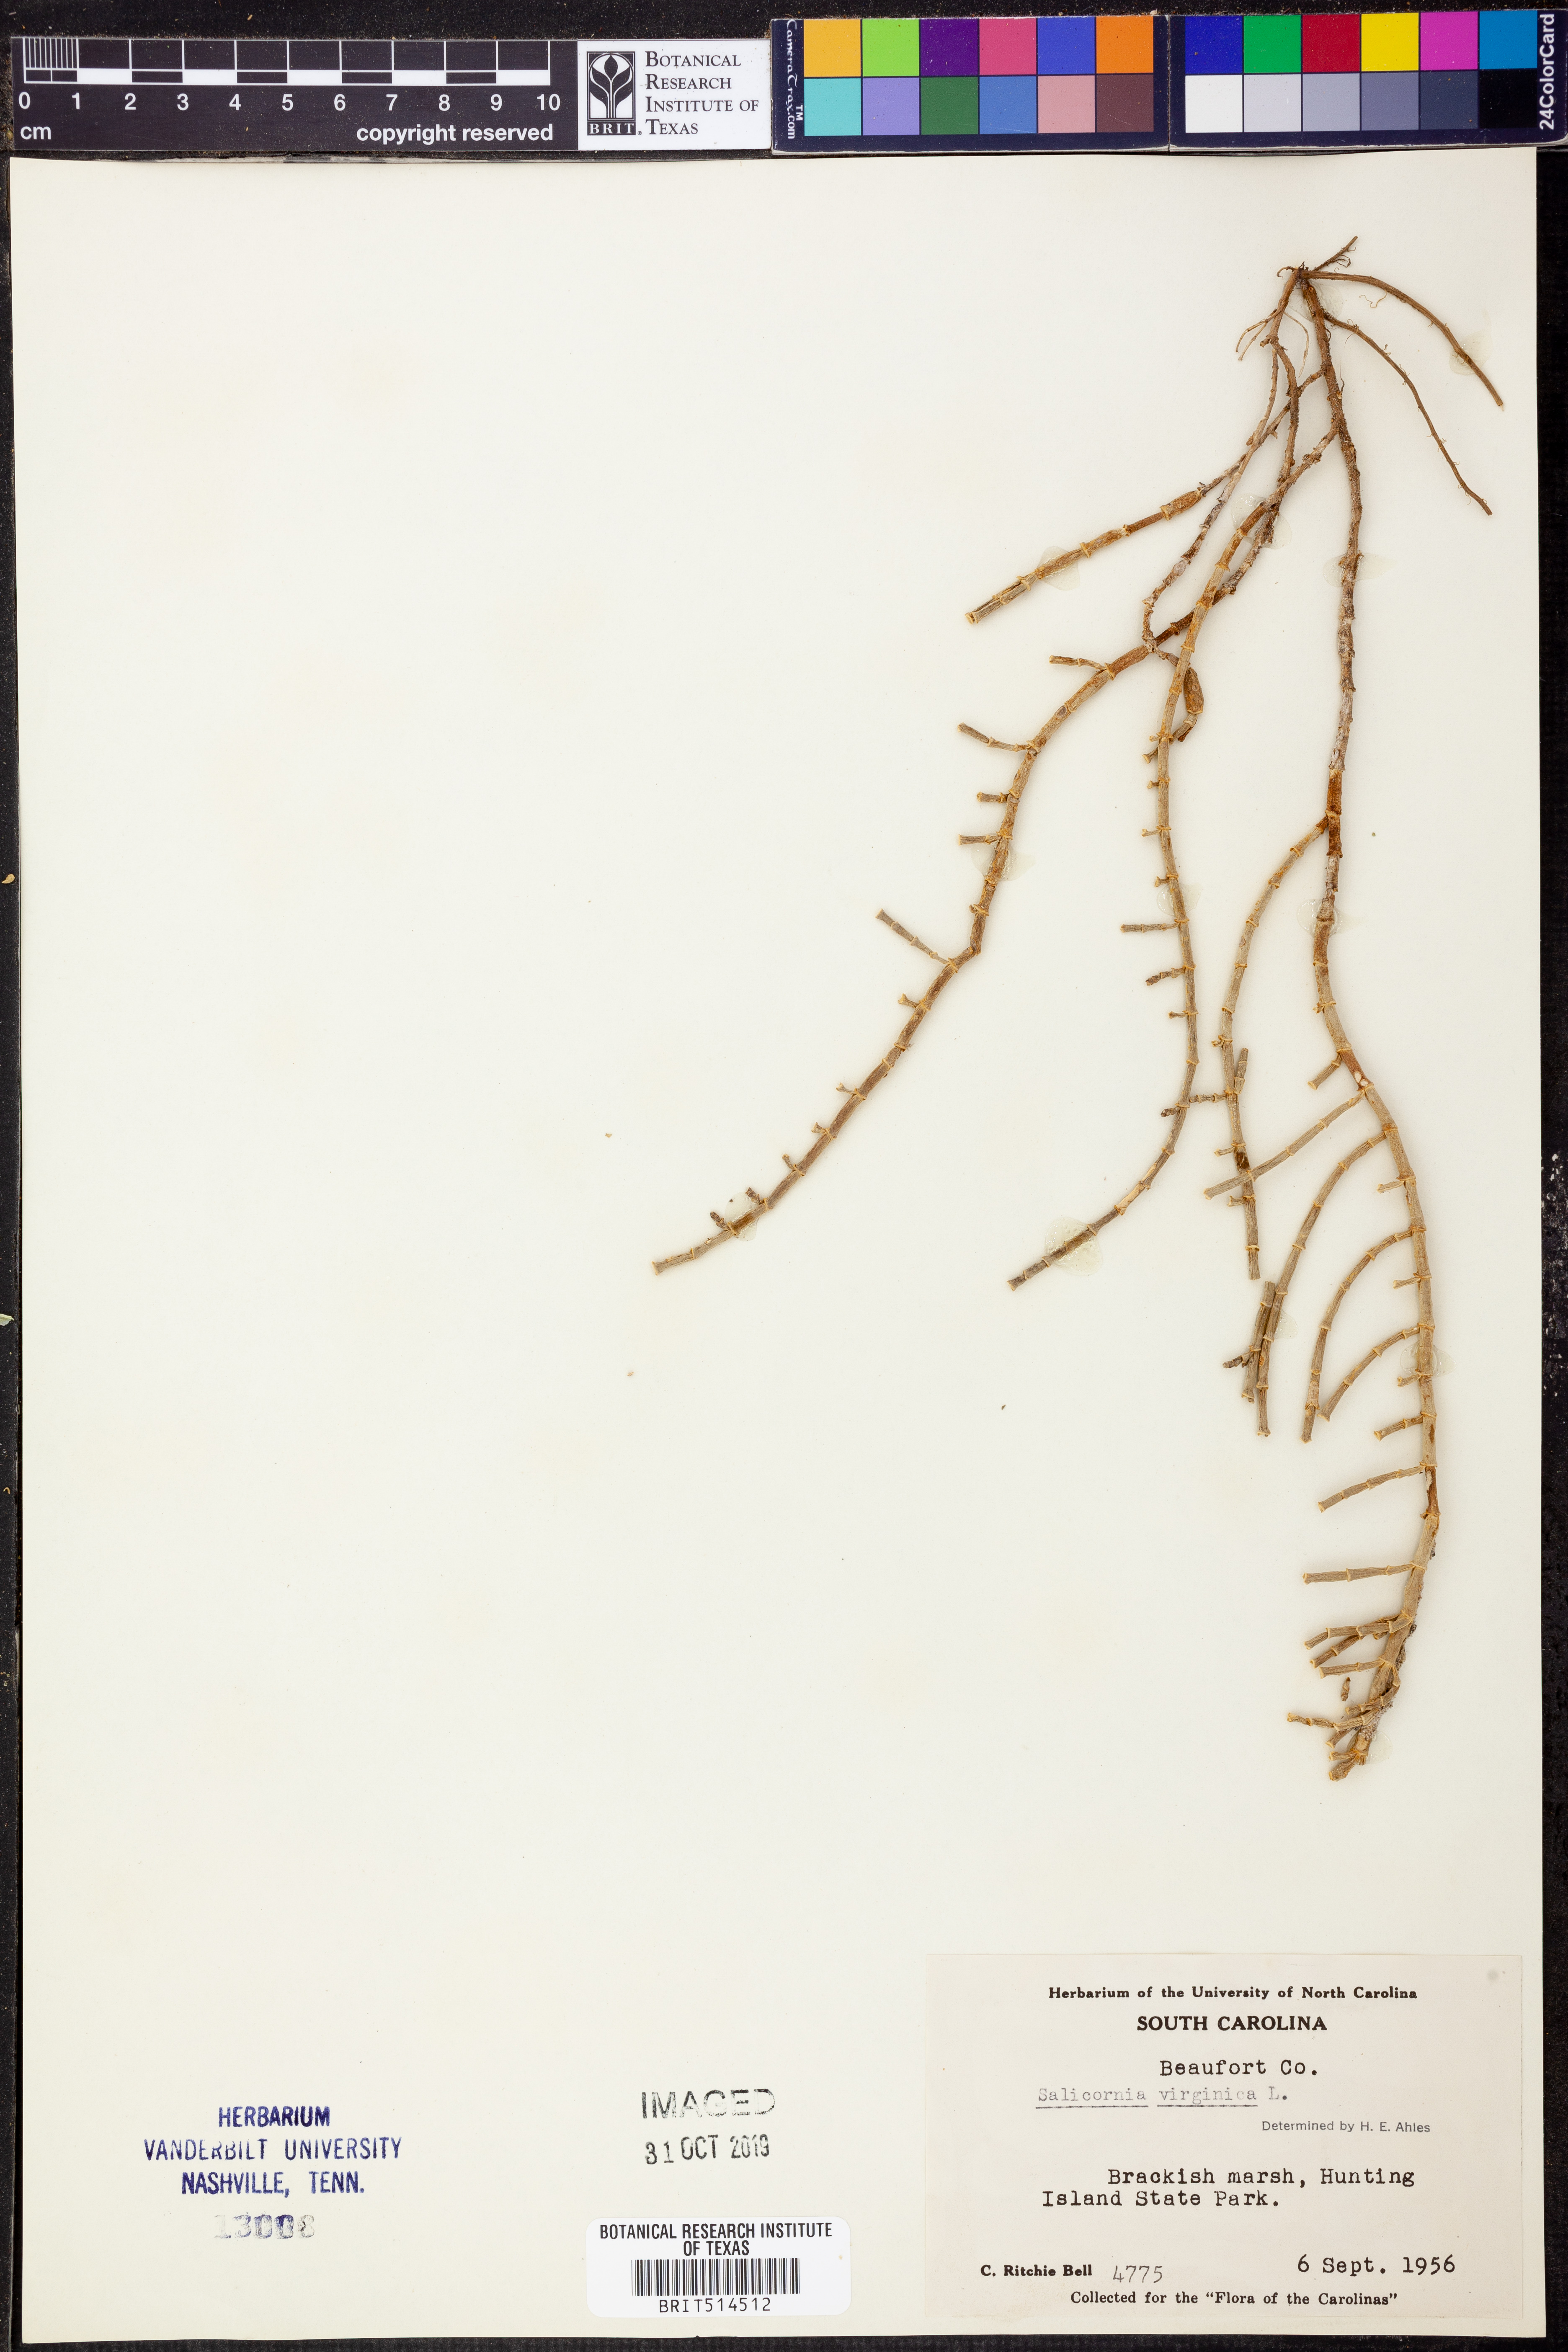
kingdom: Plantae
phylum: Tracheophyta
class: Magnoliopsida
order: Caryophyllales
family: Amaranthaceae
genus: Salicornia
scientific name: Salicornia virginica
